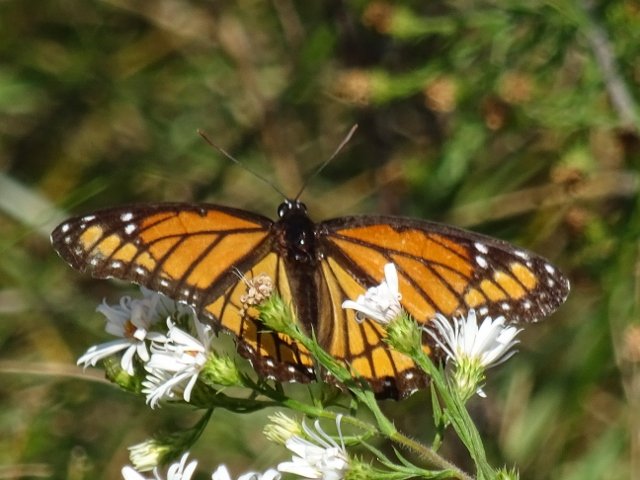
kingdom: Animalia
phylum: Arthropoda
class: Insecta
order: Lepidoptera
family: Nymphalidae
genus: Limenitis
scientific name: Limenitis archippus
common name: Viceroy
